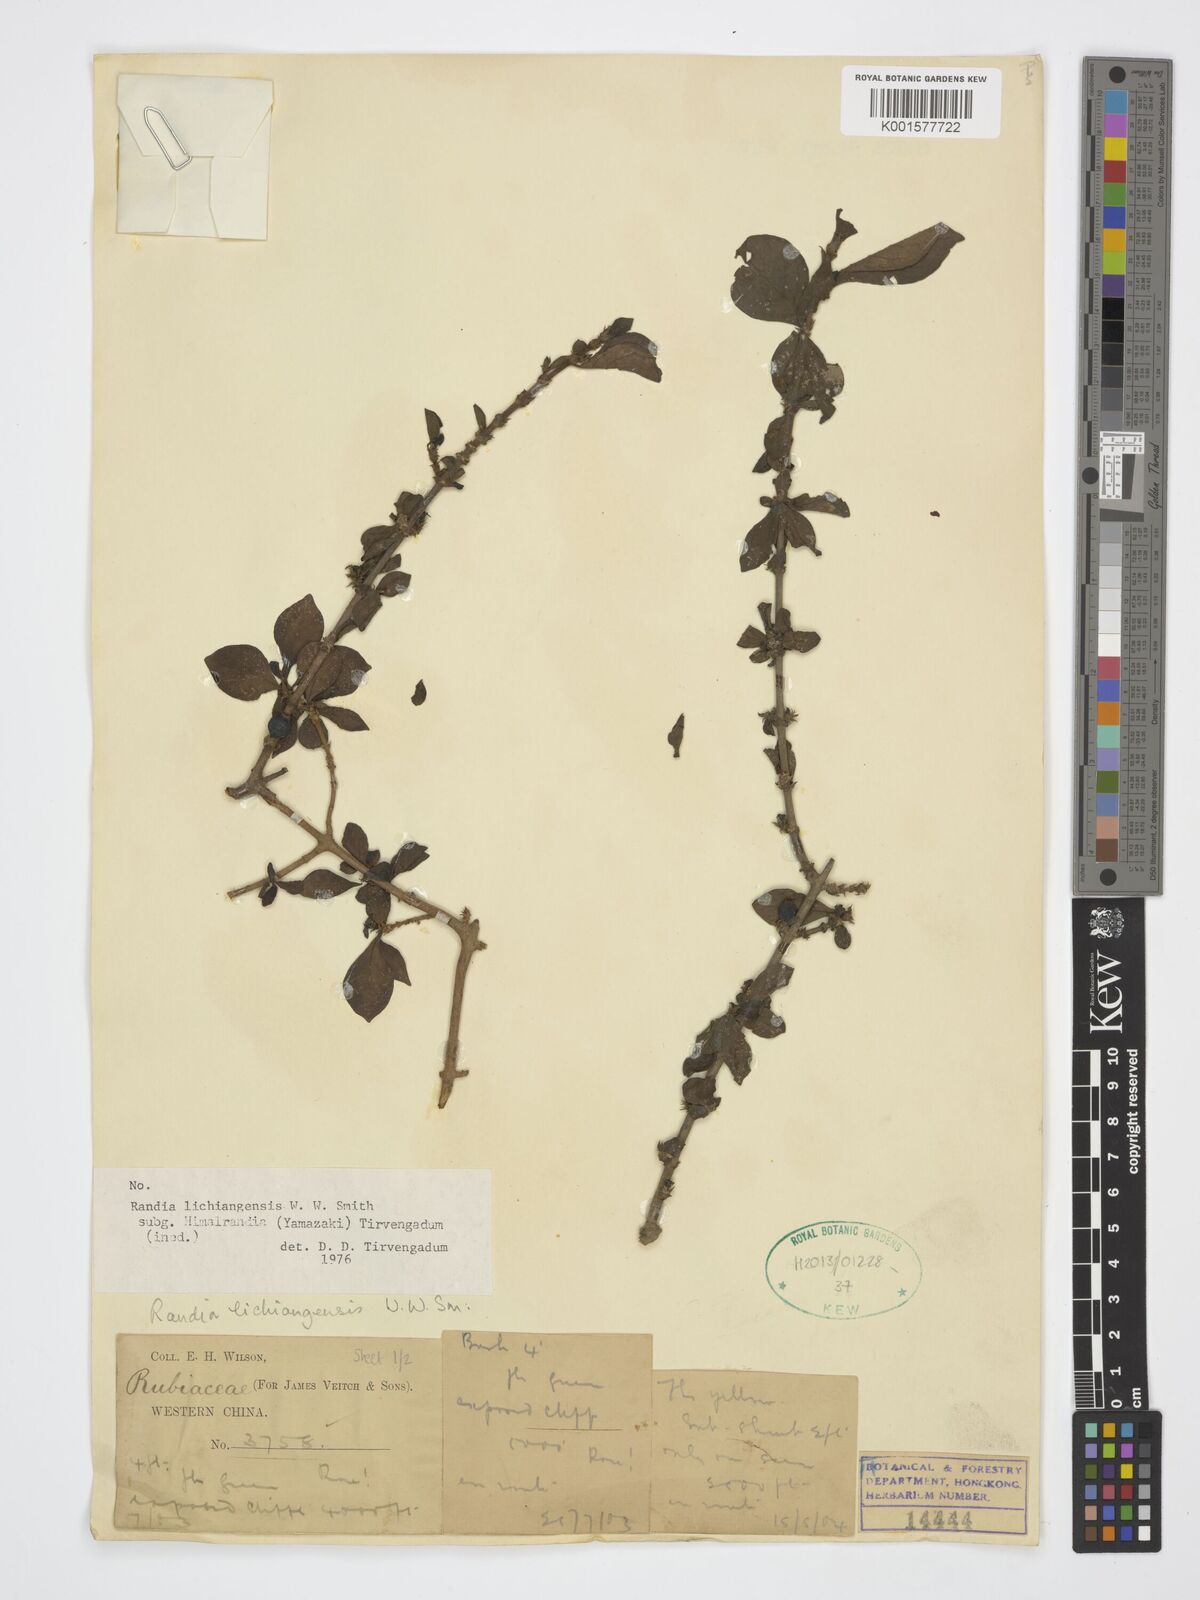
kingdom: Plantae
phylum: Tracheophyta
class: Magnoliopsida
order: Gentianales
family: Rubiaceae
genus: Himalrandia
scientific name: Himalrandia lichiangensis
